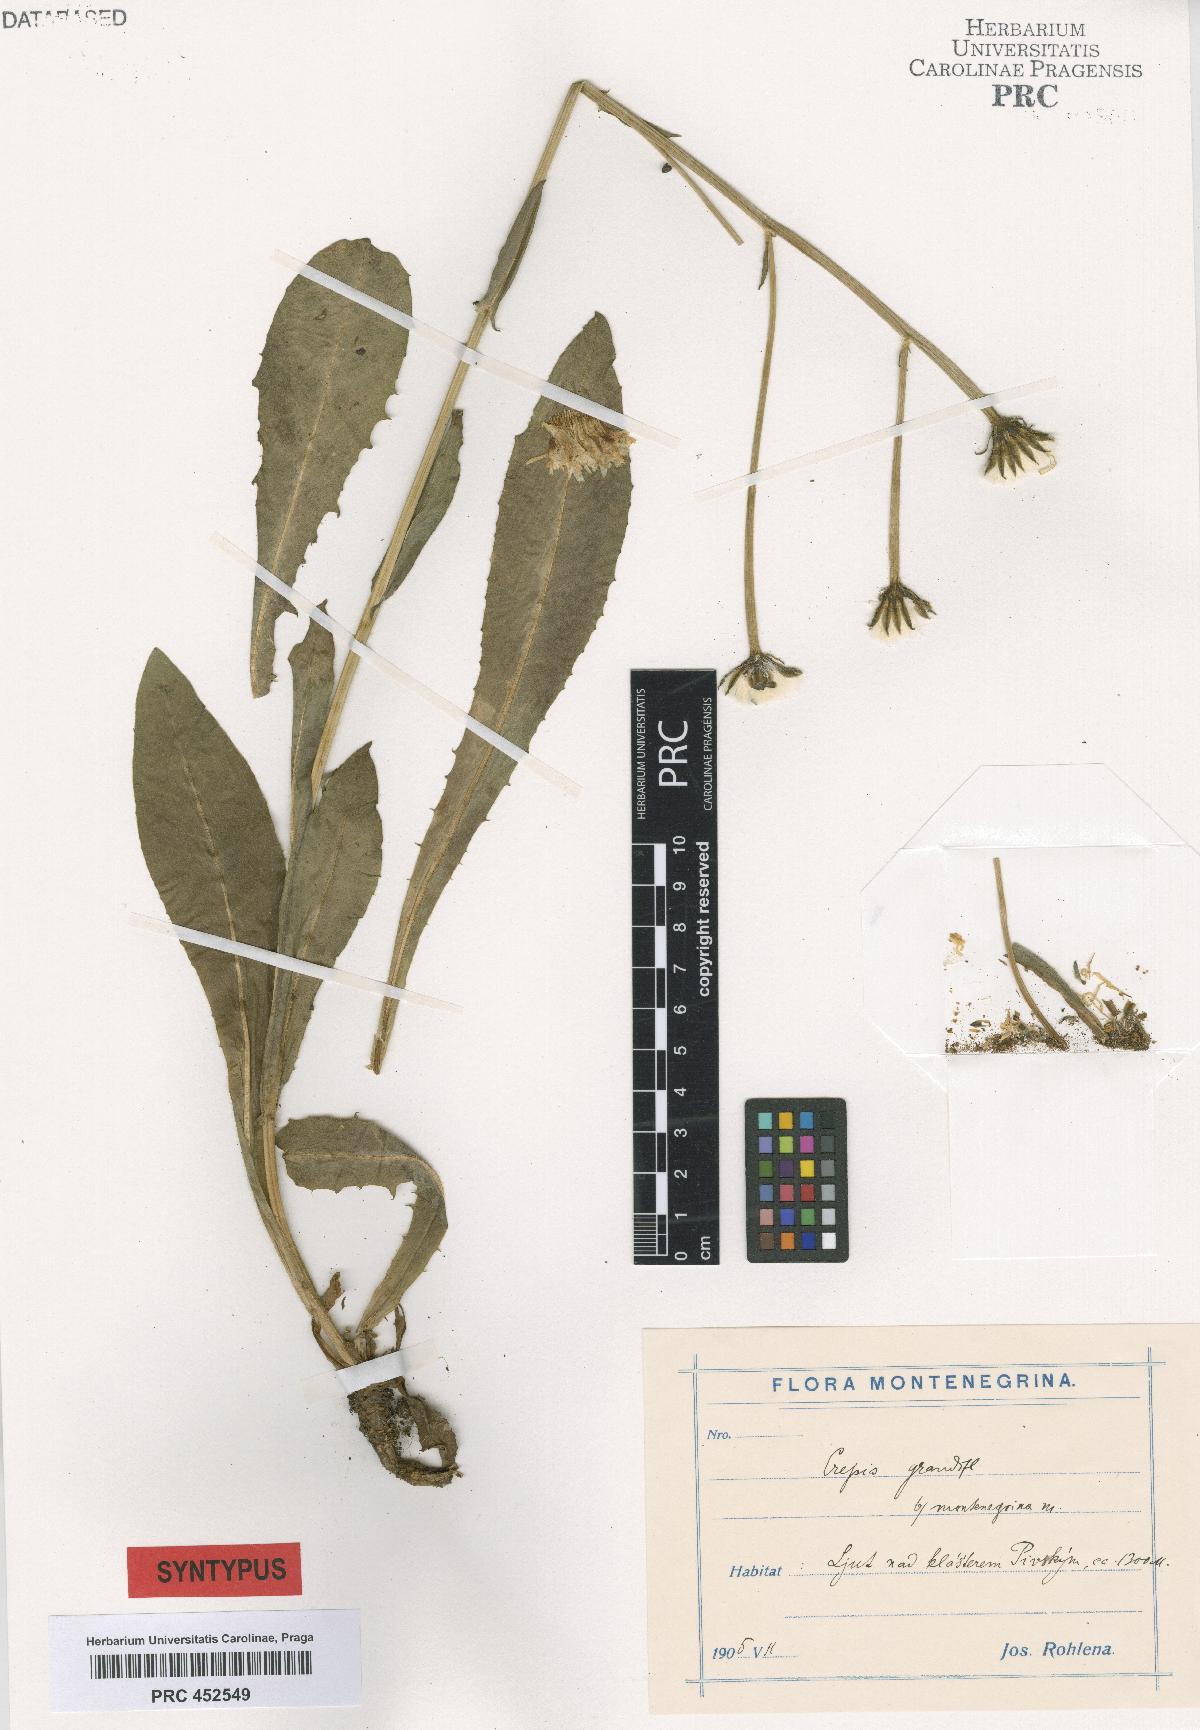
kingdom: Plantae
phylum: Tracheophyta
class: Magnoliopsida
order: Asterales
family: Asteraceae
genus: Crepis
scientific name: Crepis pyrenaica
